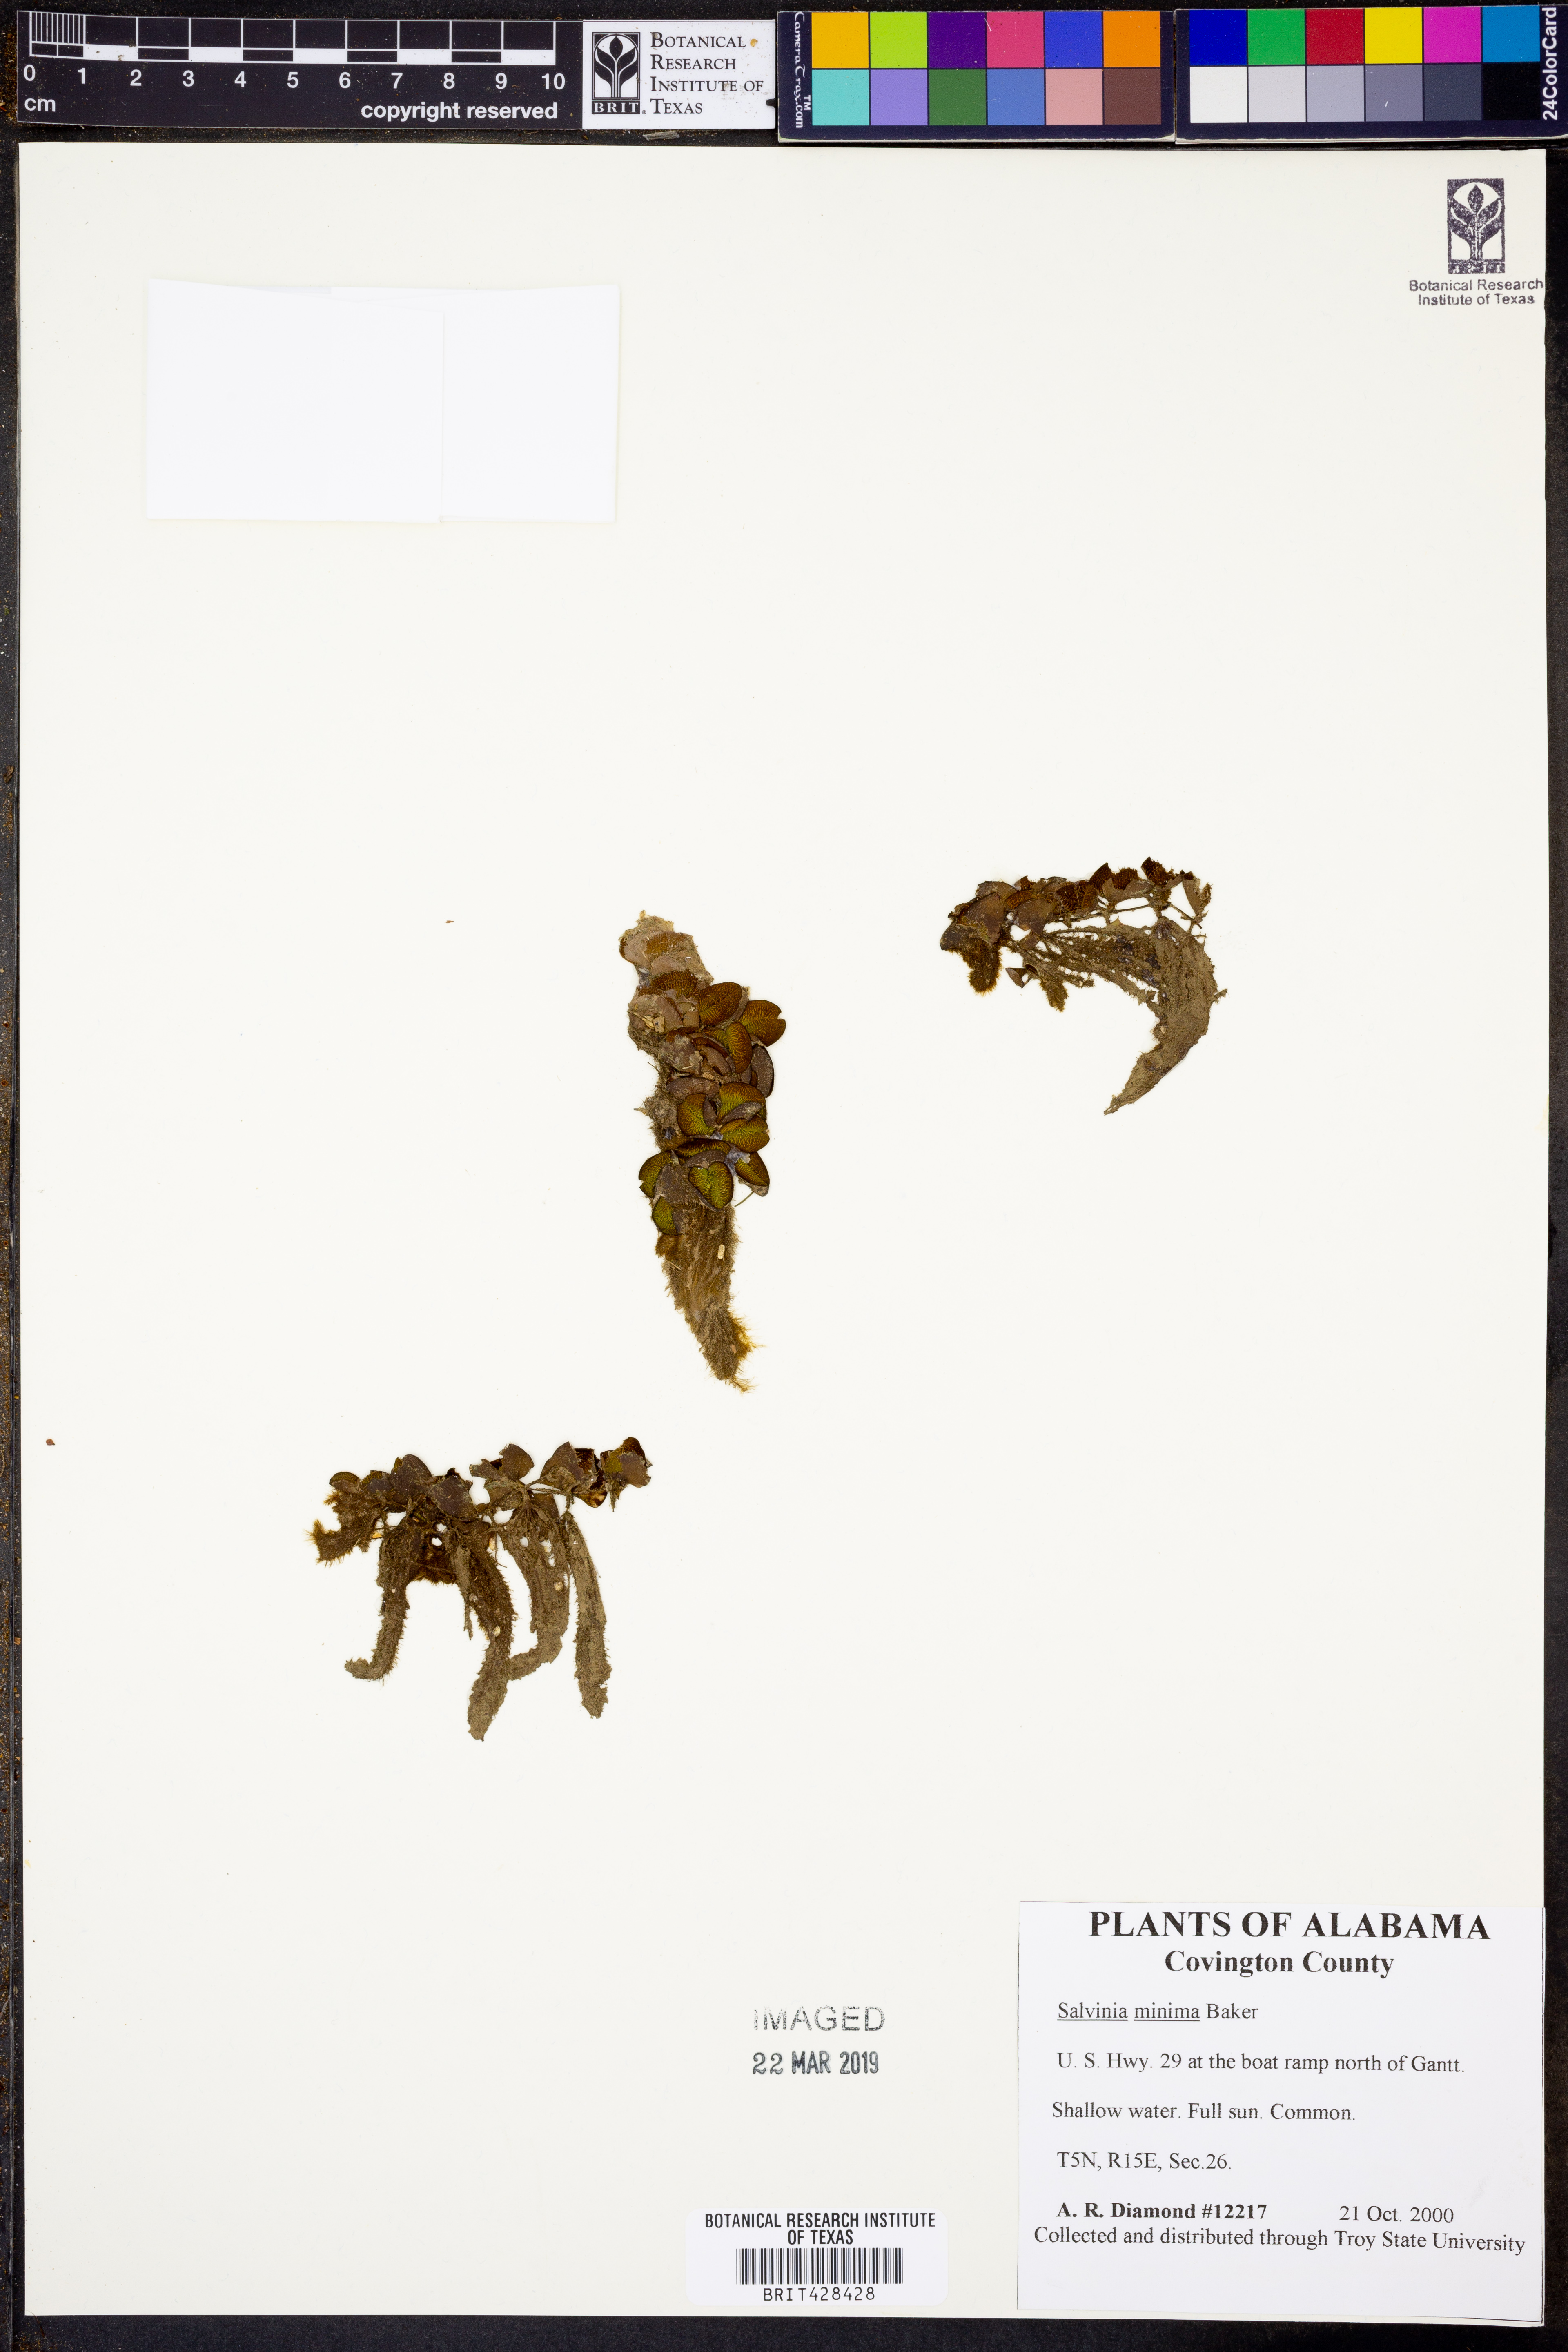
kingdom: Plantae
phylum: Tracheophyta
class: Polypodiopsida
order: Salviniales
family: Salviniaceae
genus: Salvinia
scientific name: Salvinia minima
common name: Water spangles
